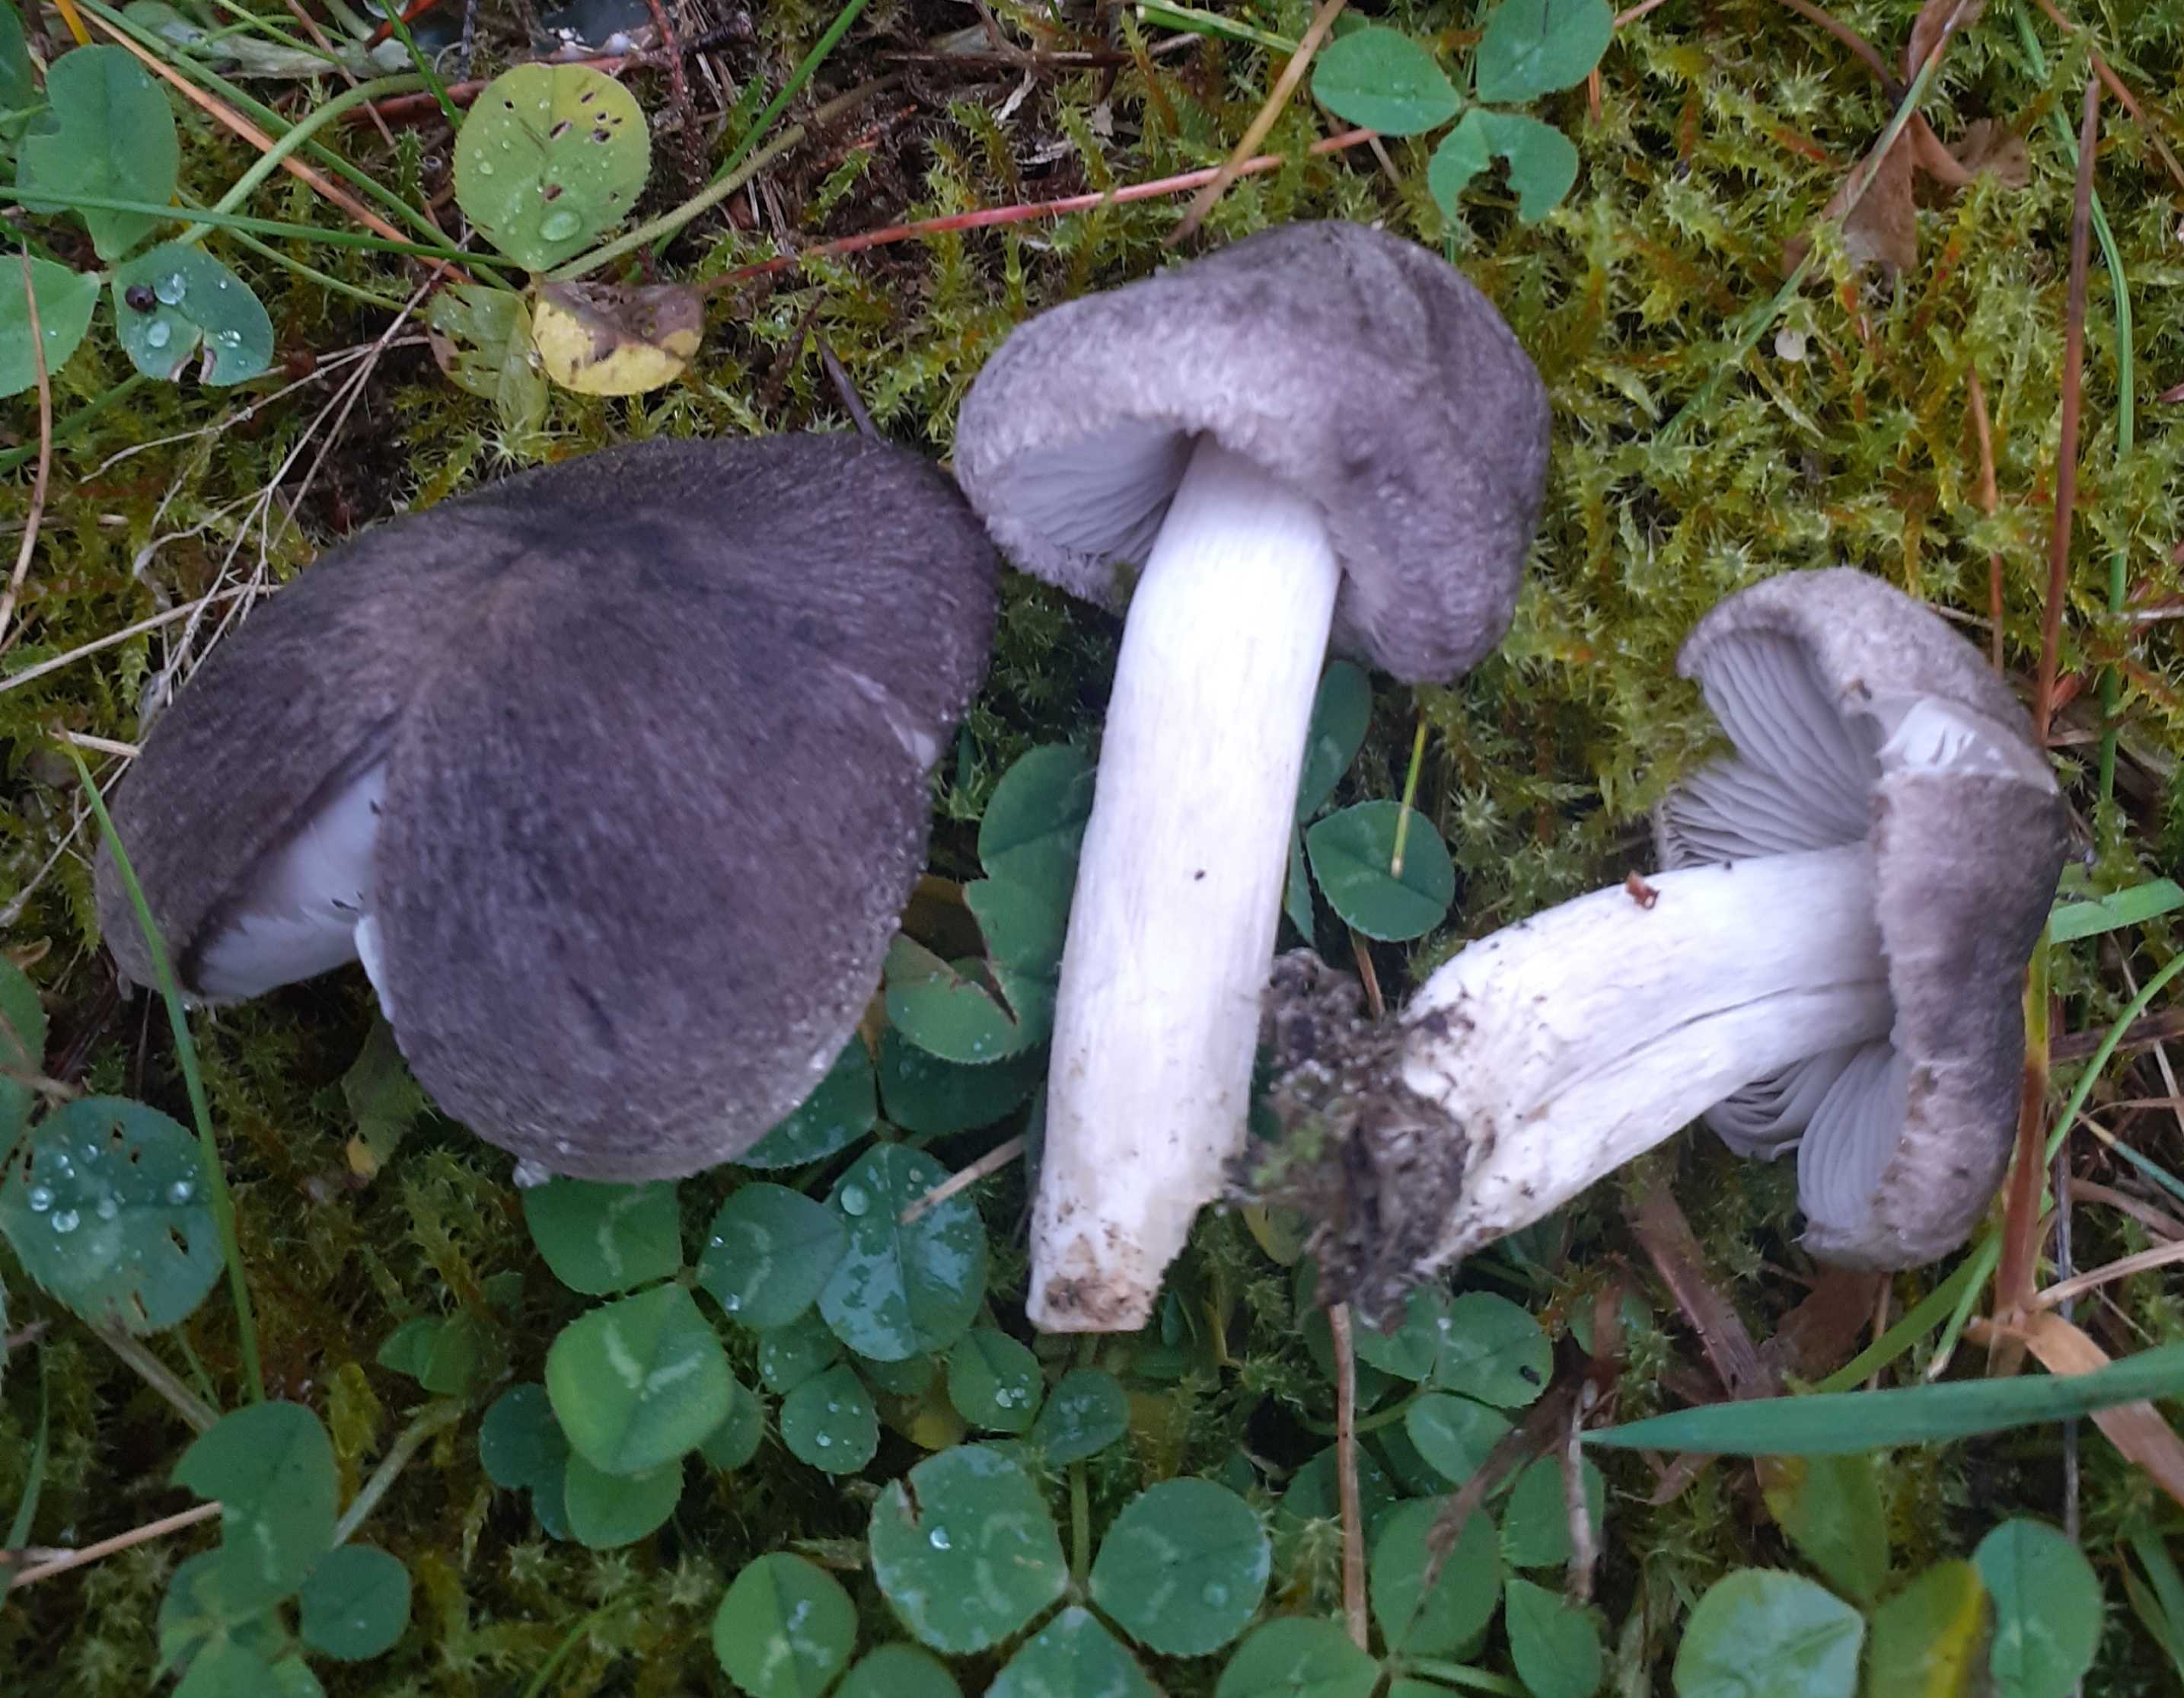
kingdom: Fungi
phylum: Basidiomycota
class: Agaricomycetes
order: Agaricales
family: Tricholomataceae
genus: Tricholoma
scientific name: Tricholoma terreum
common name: jordfarvet ridderhat
